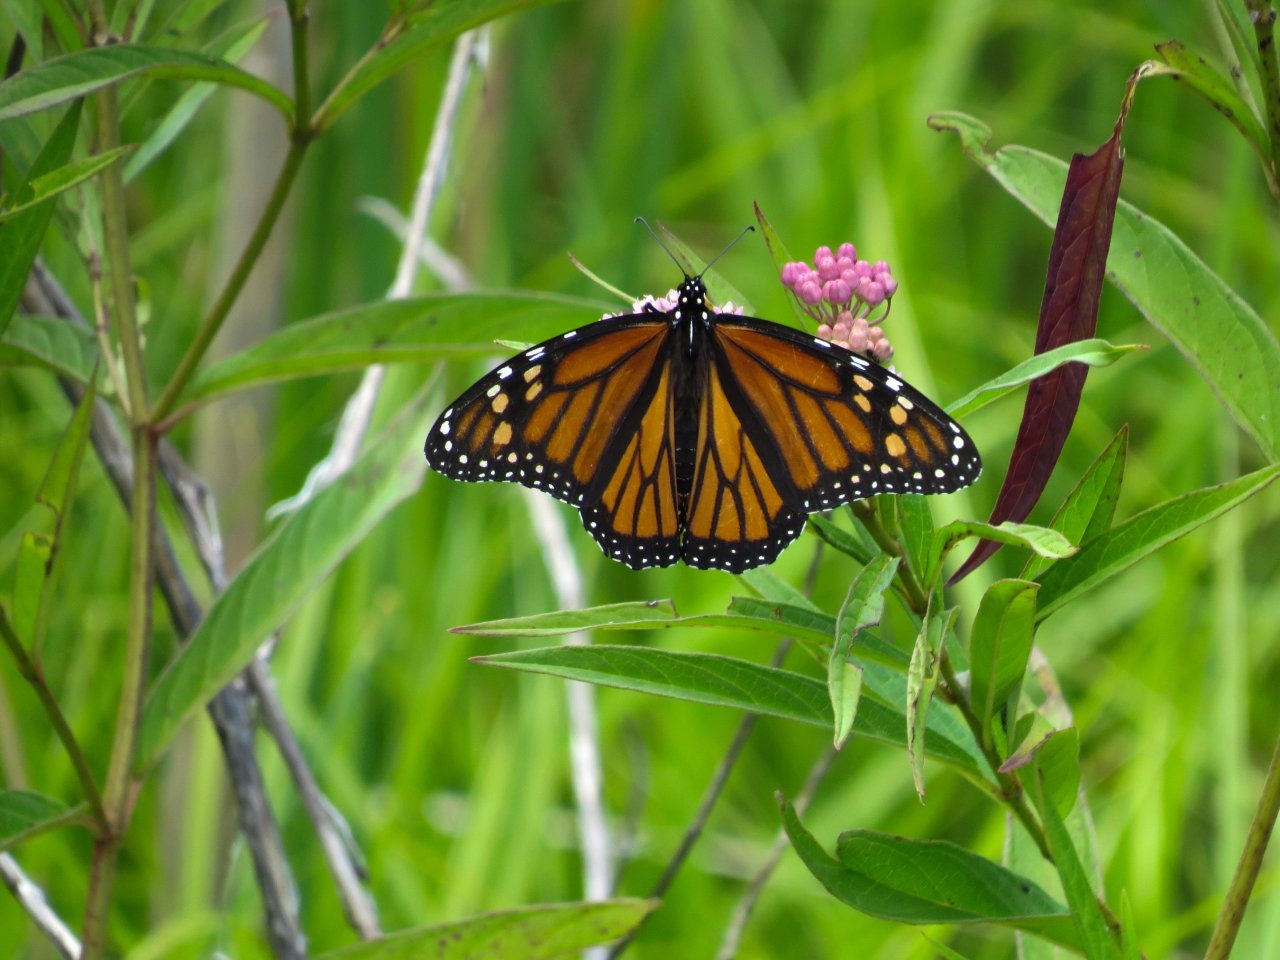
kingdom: Animalia
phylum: Arthropoda
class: Insecta
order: Lepidoptera
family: Nymphalidae
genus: Danaus
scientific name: Danaus plexippus
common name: Monarch
